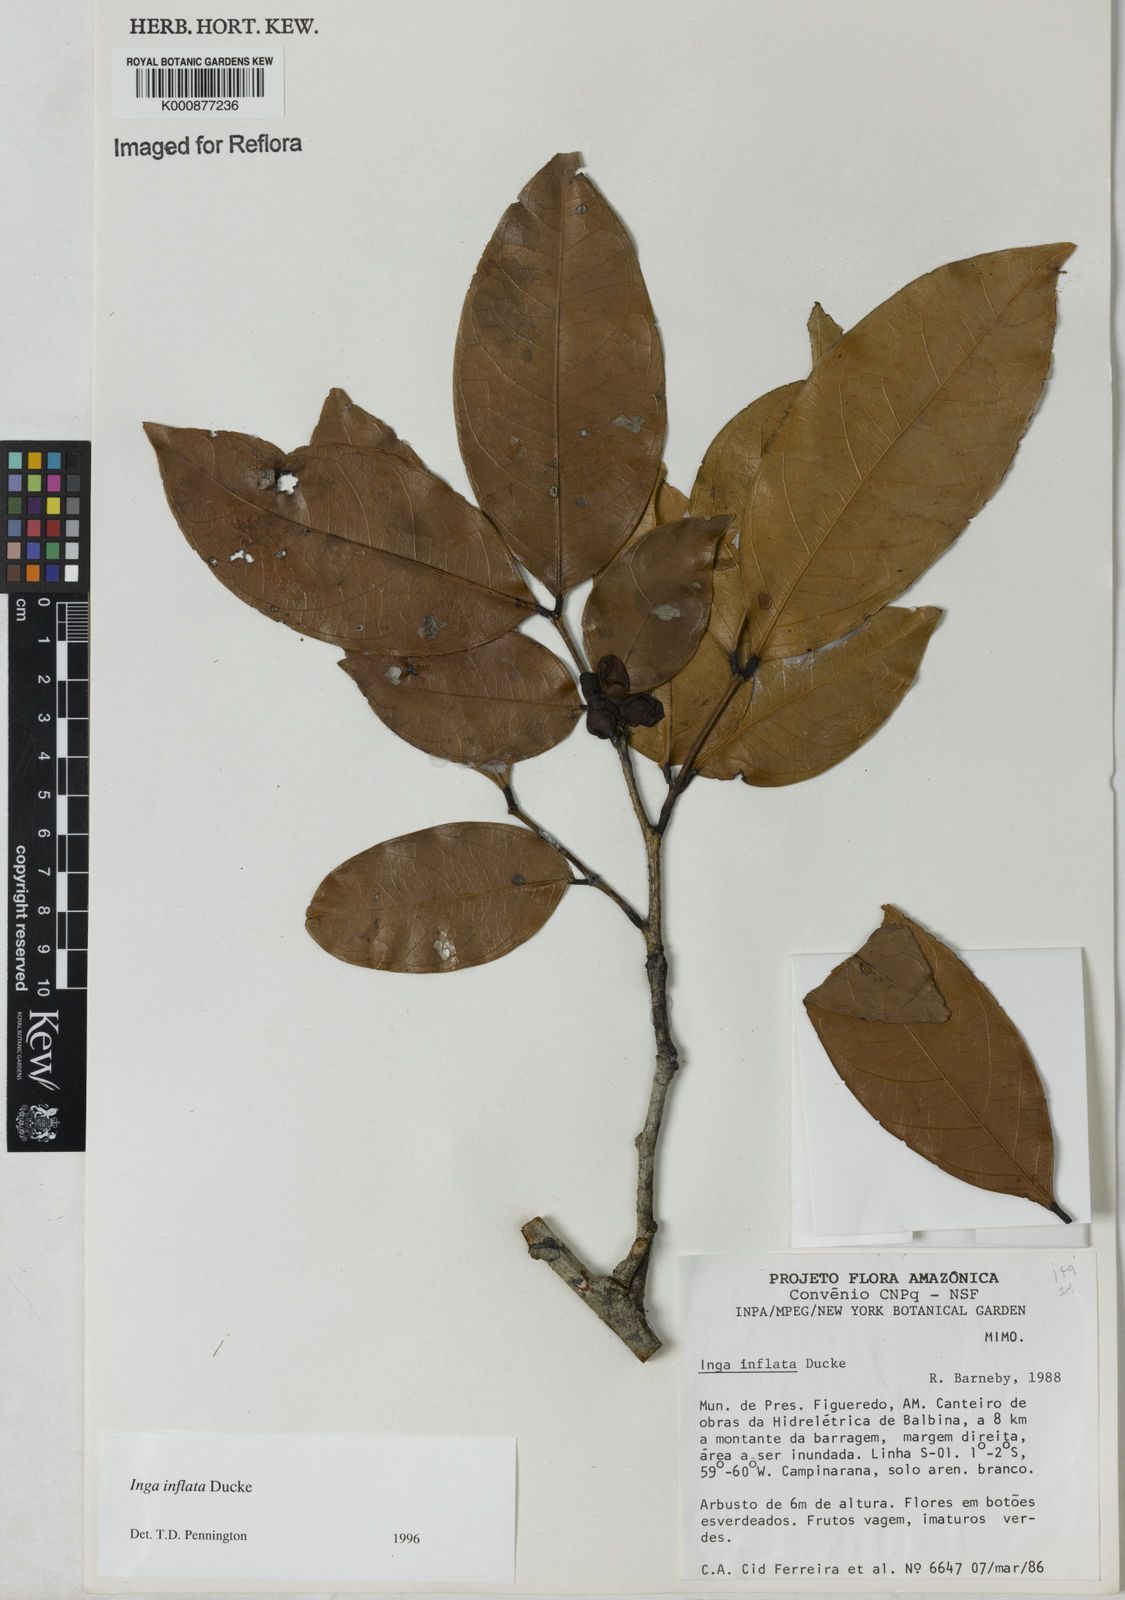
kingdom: Plantae
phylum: Tracheophyta
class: Magnoliopsida
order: Fabales
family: Fabaceae
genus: Inga
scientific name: Inga inflata
